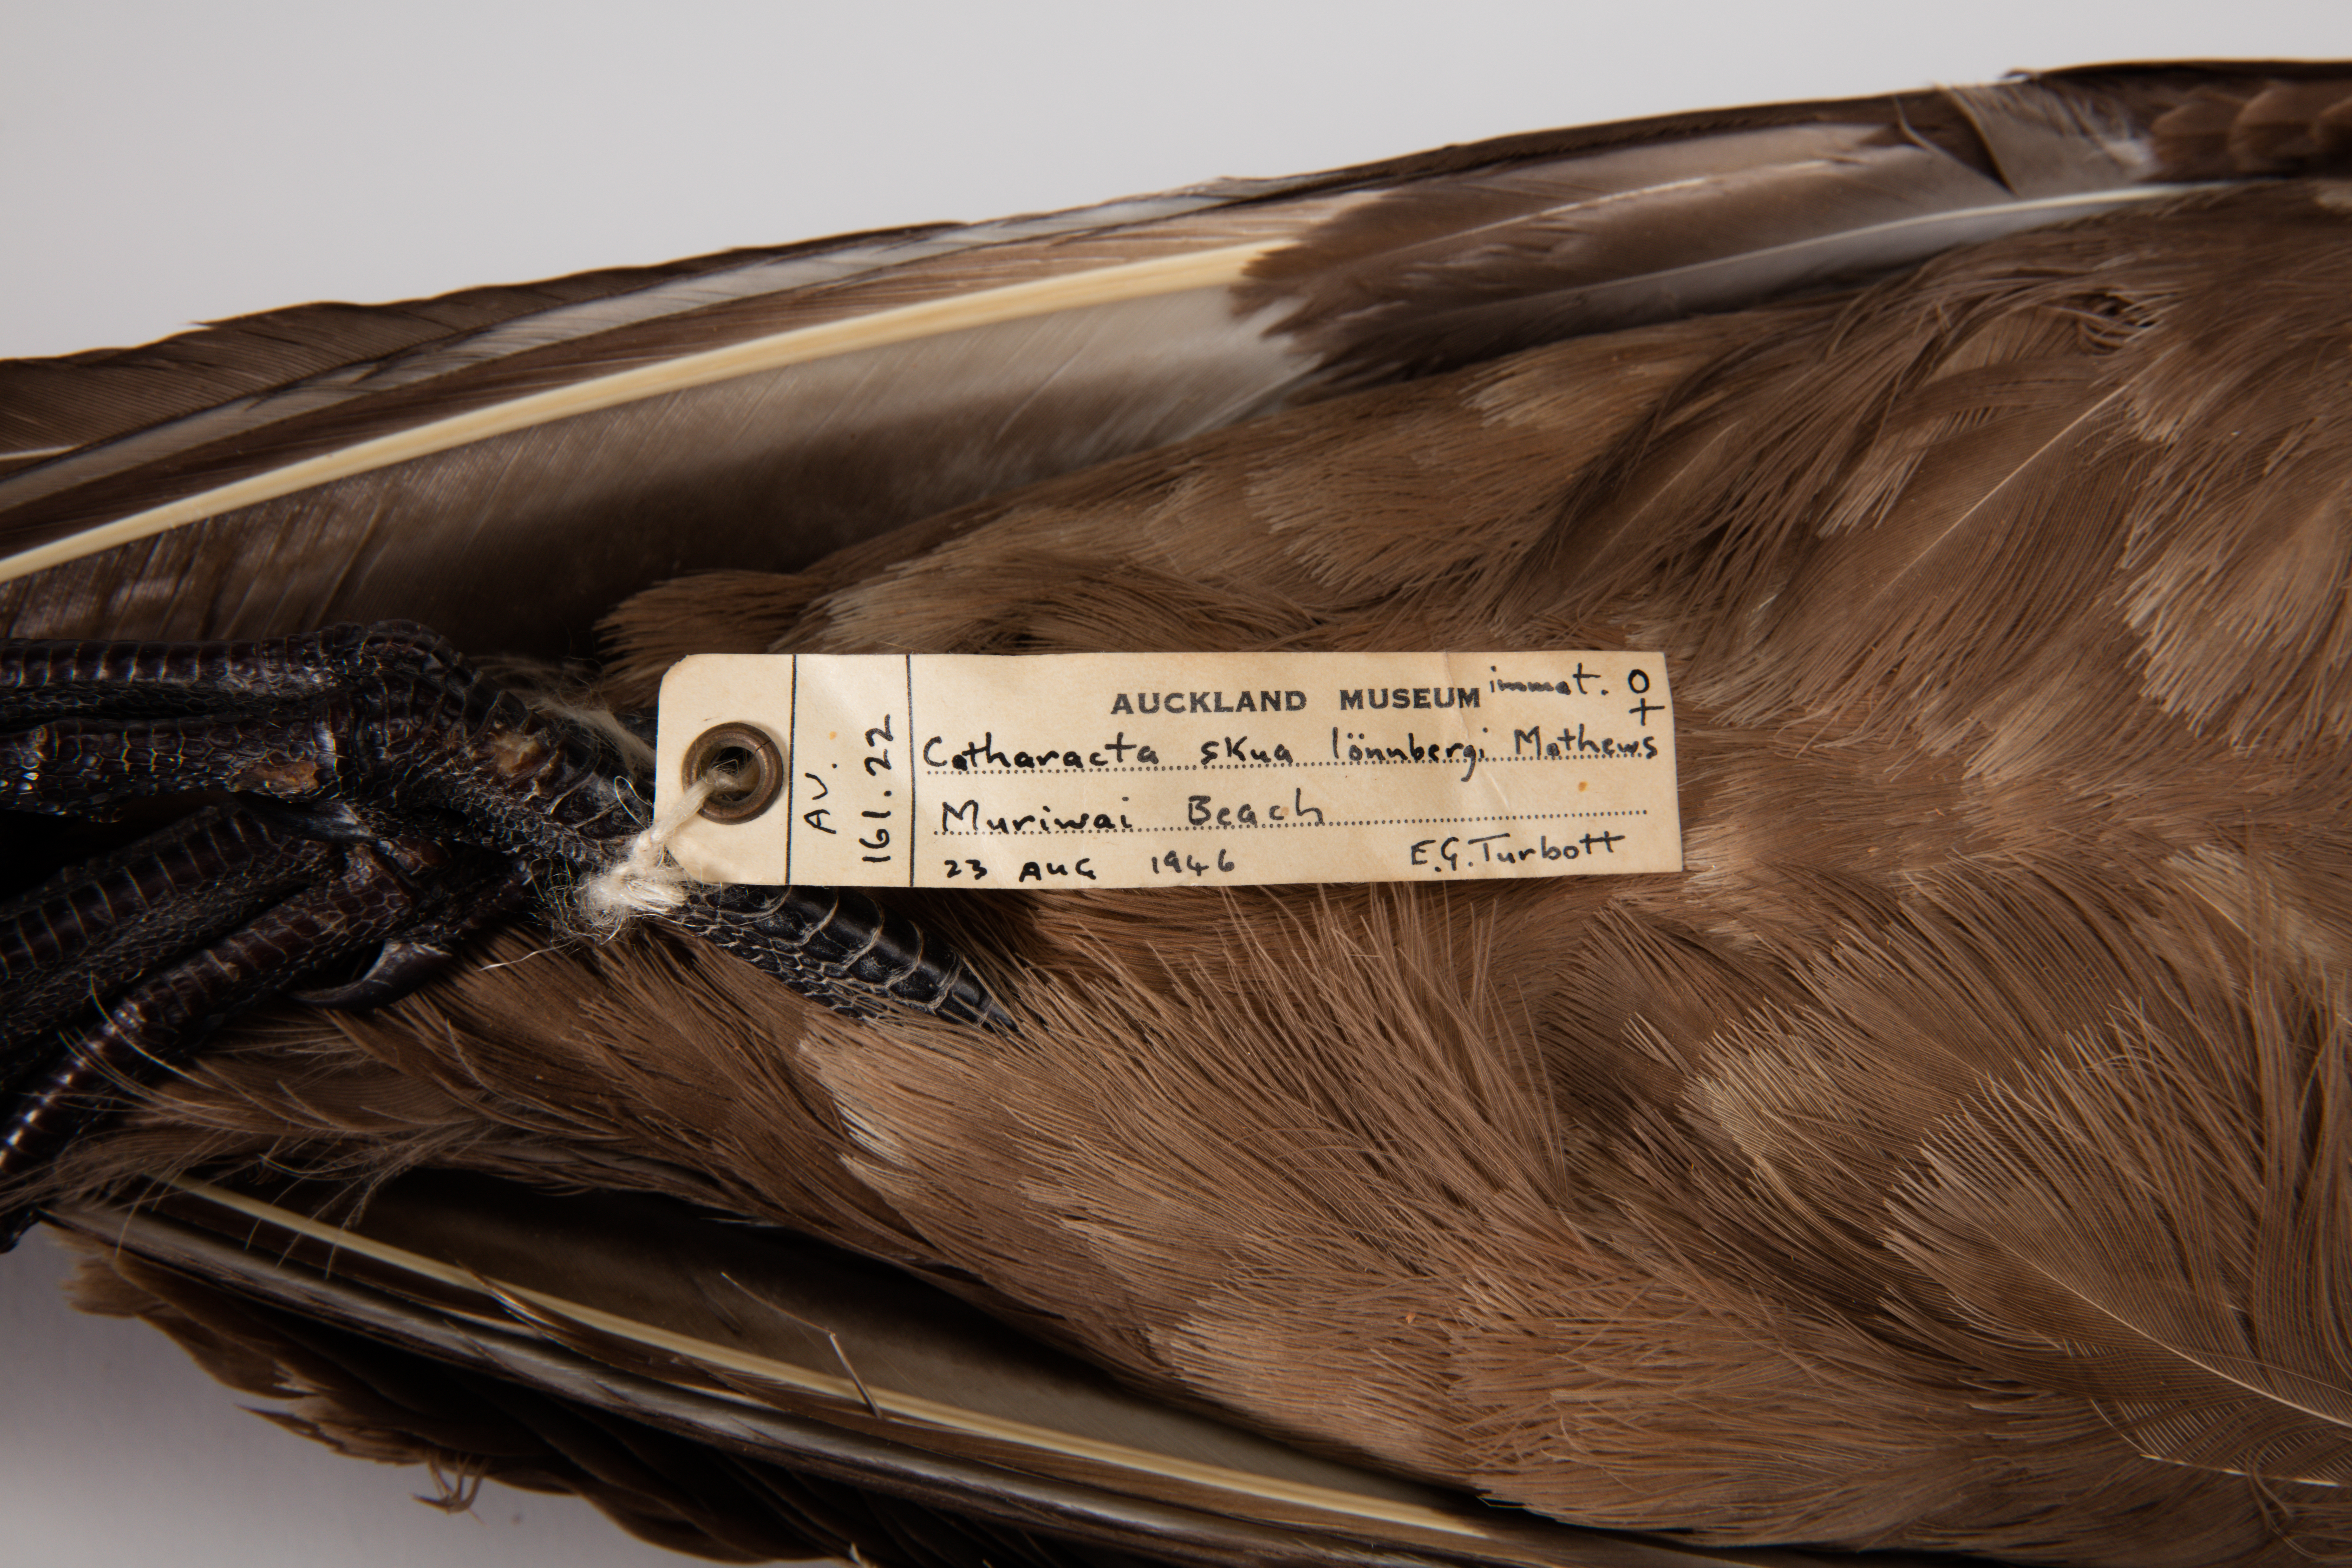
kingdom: Animalia
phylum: Chordata
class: Aves
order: Charadriiformes
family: Stercorariidae
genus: Stercorarius
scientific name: Stercorarius antarcticus
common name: Brown skua
